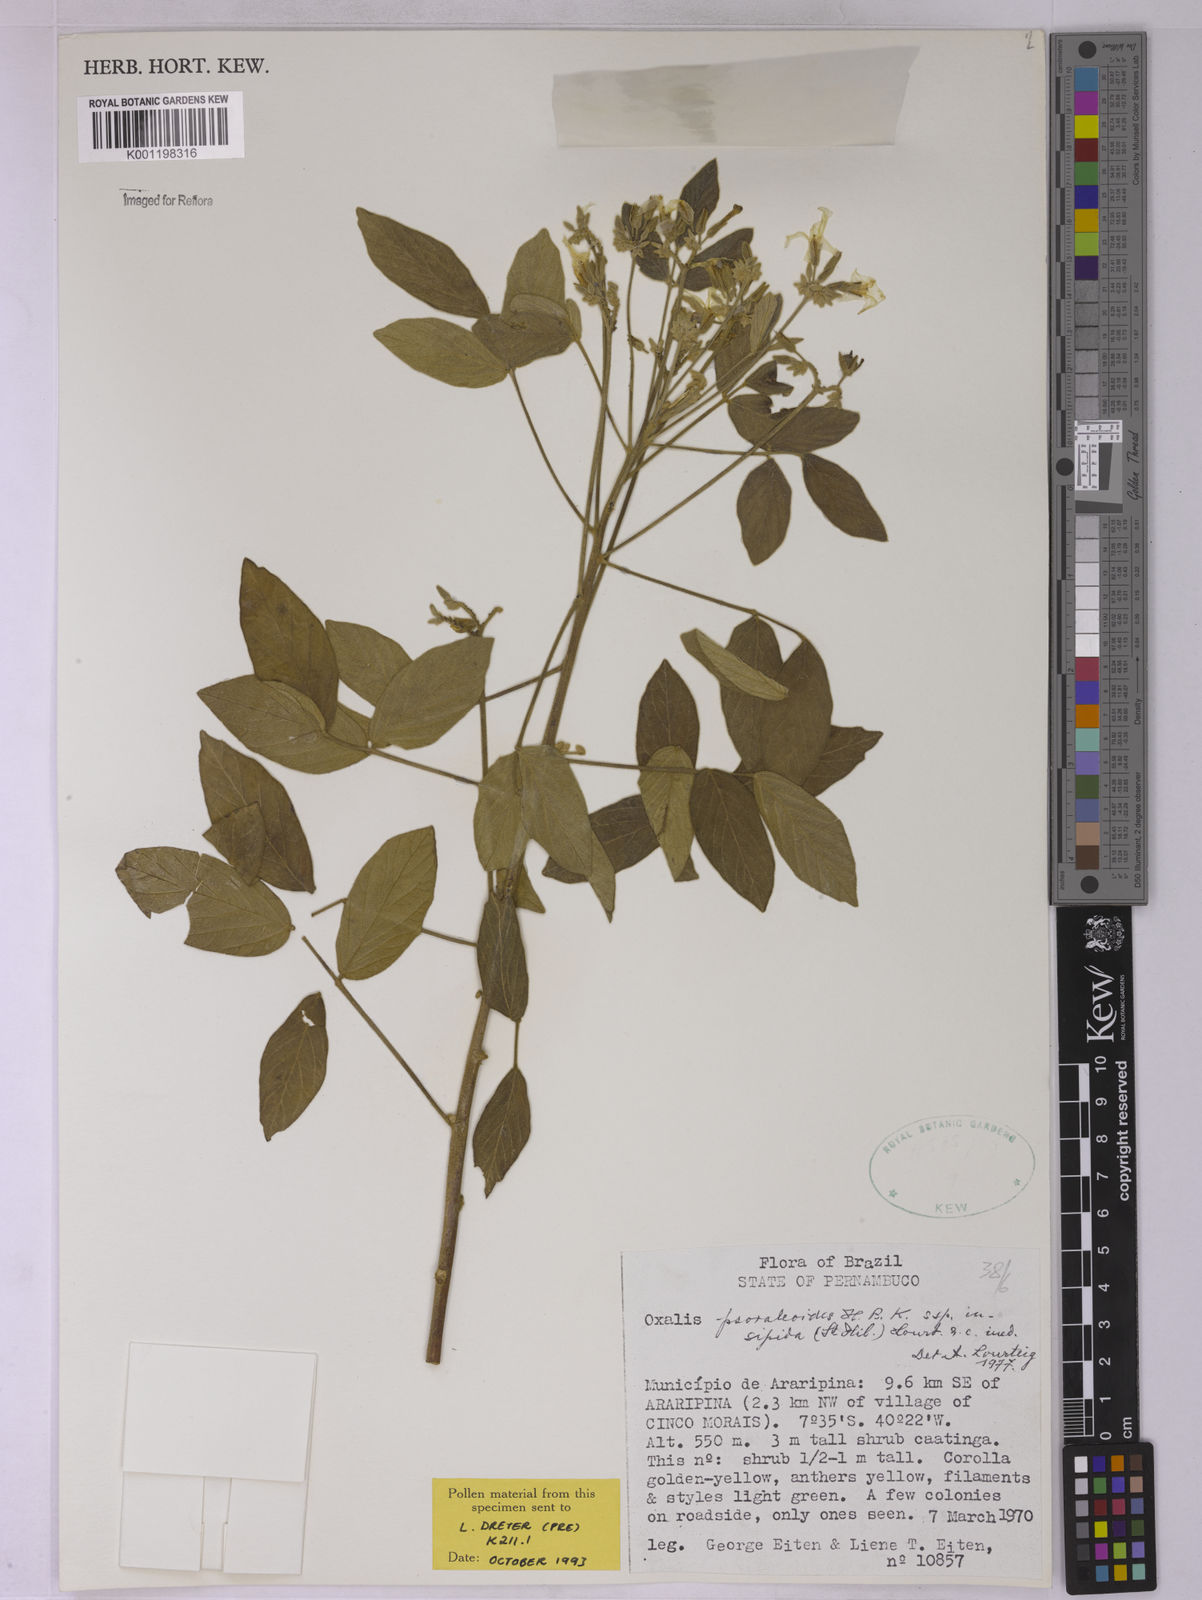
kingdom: Plantae
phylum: Tracheophyta
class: Magnoliopsida
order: Oxalidales
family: Oxalidaceae
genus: Oxalis
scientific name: Oxalis psoraleoides
